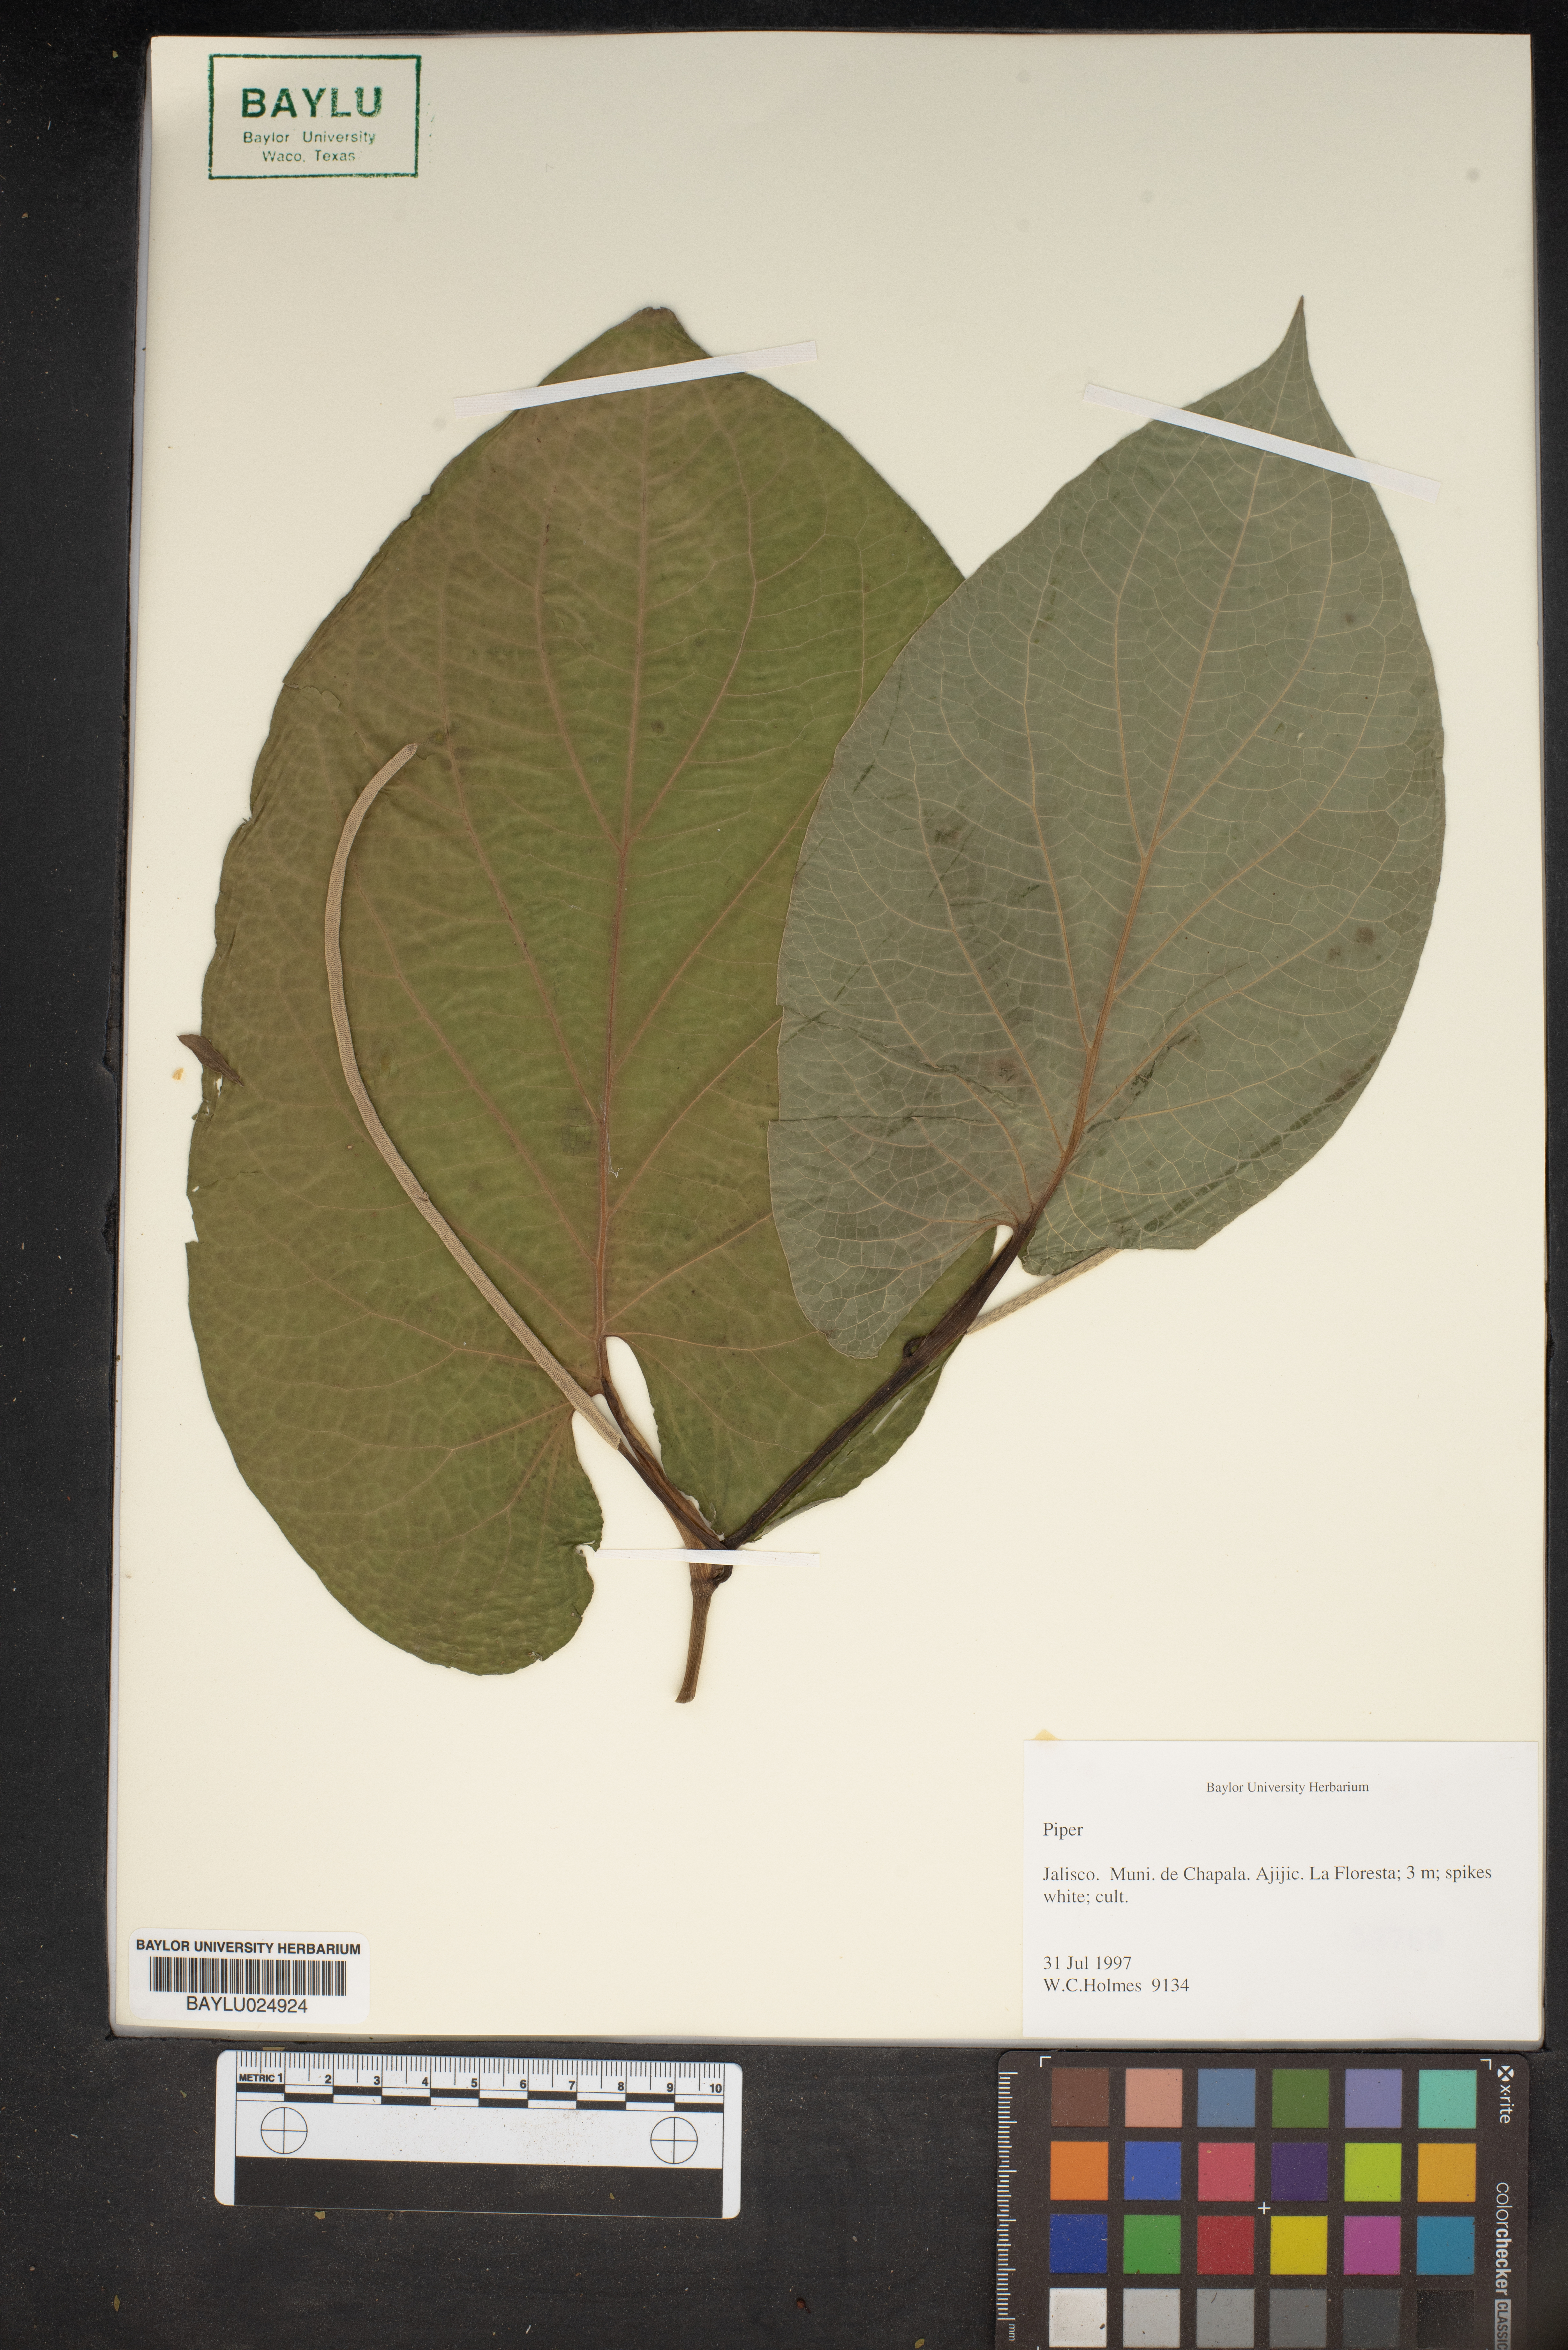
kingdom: Plantae
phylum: Tracheophyta
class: Magnoliopsida
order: Piperales
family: Piperaceae
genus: Piper
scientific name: Piper
